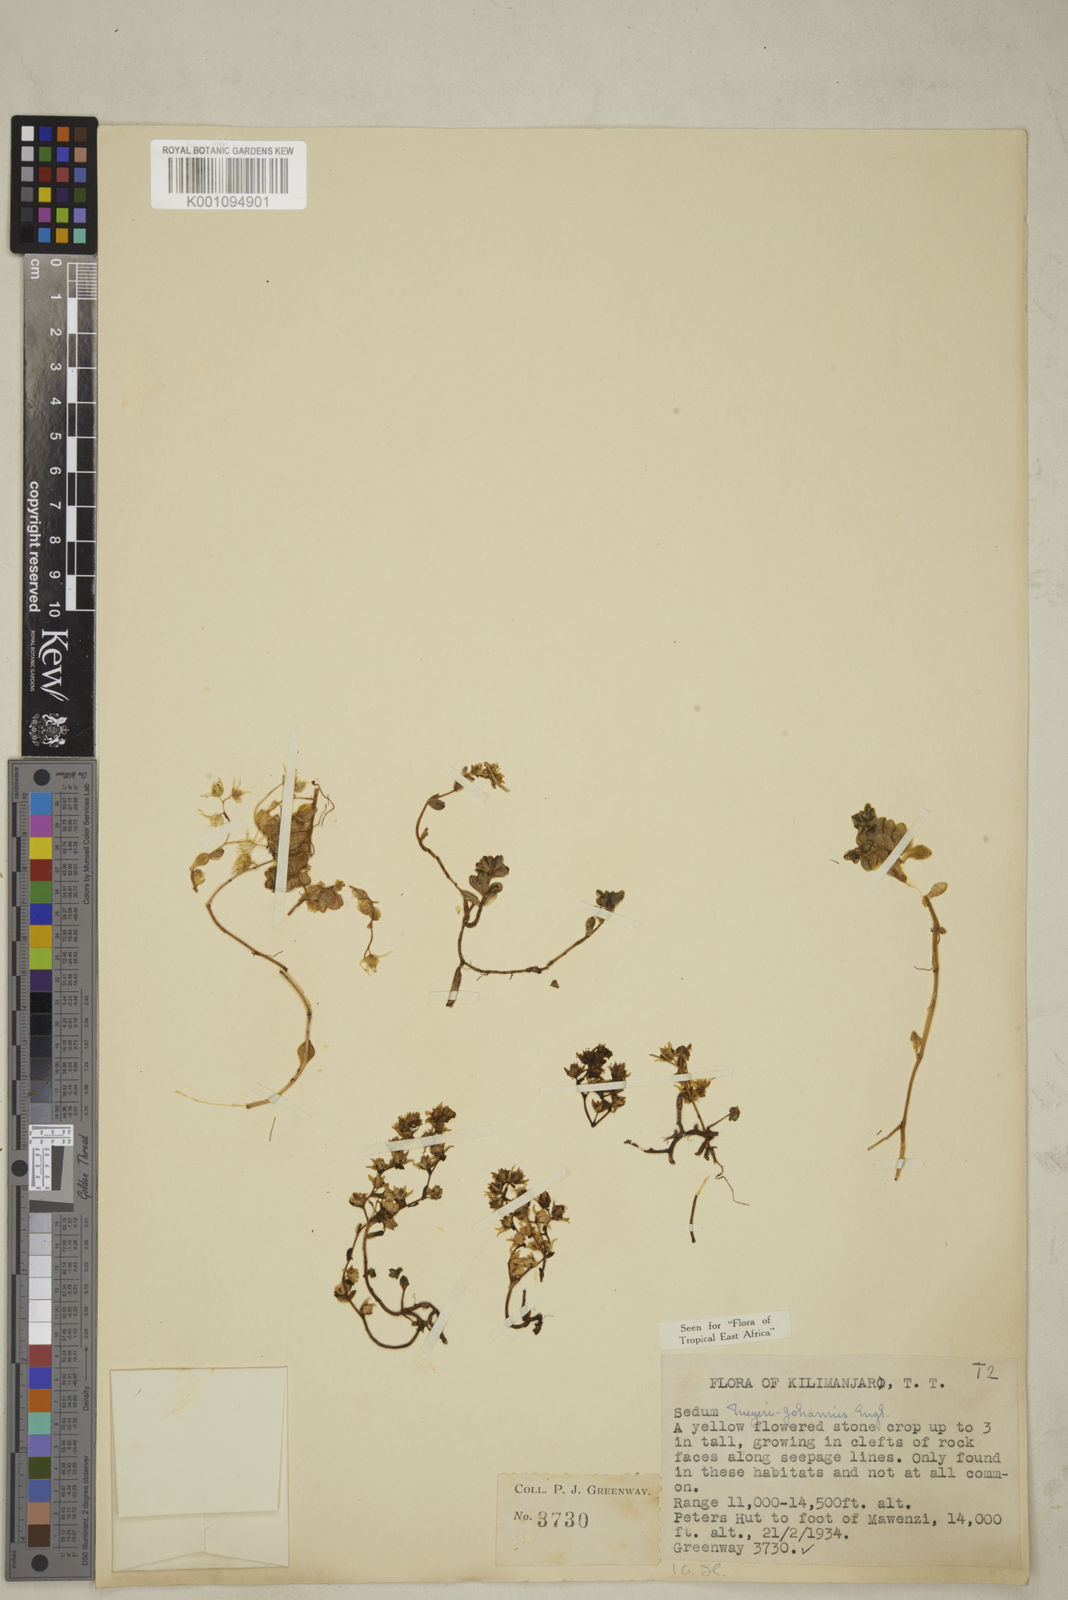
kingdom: Plantae
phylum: Tracheophyta
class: Magnoliopsida
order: Saxifragales
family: Crassulaceae
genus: Sedum
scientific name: Sedum meyeri-johannis
